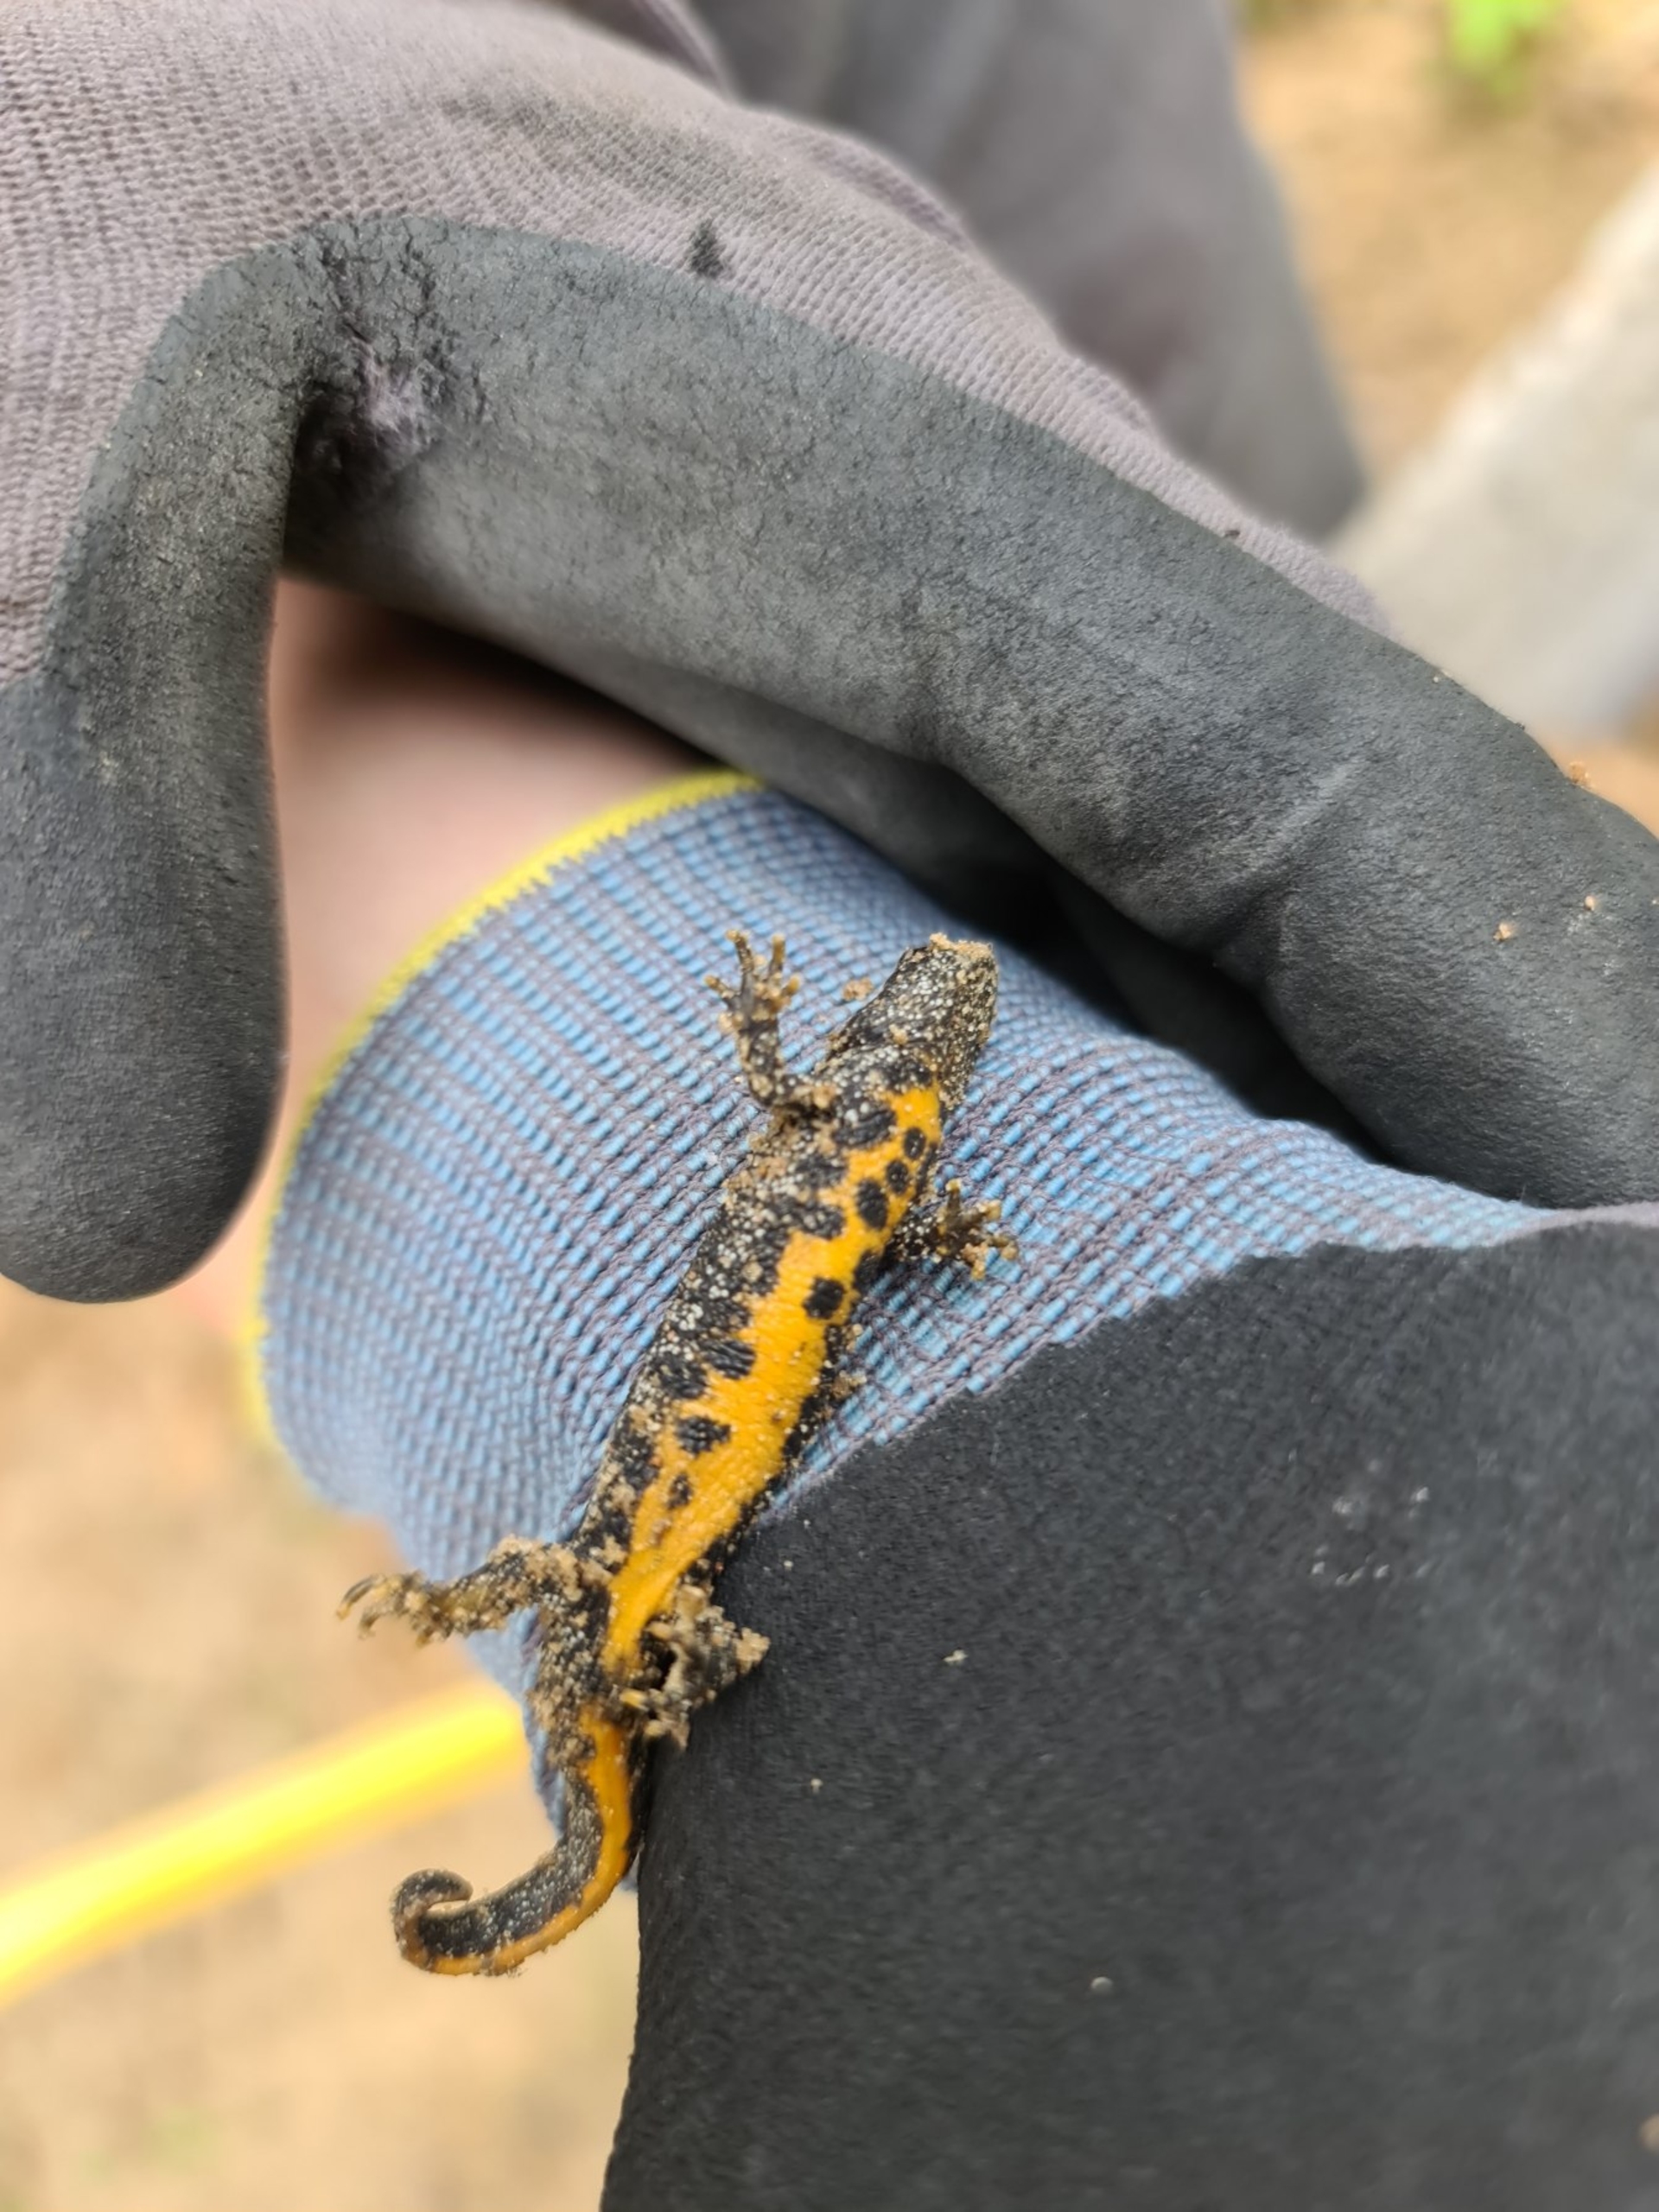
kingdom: Animalia
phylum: Chordata
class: Amphibia
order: Caudata
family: Salamandridae
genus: Triturus
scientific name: Triturus cristatus
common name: Stor vandsalamander
